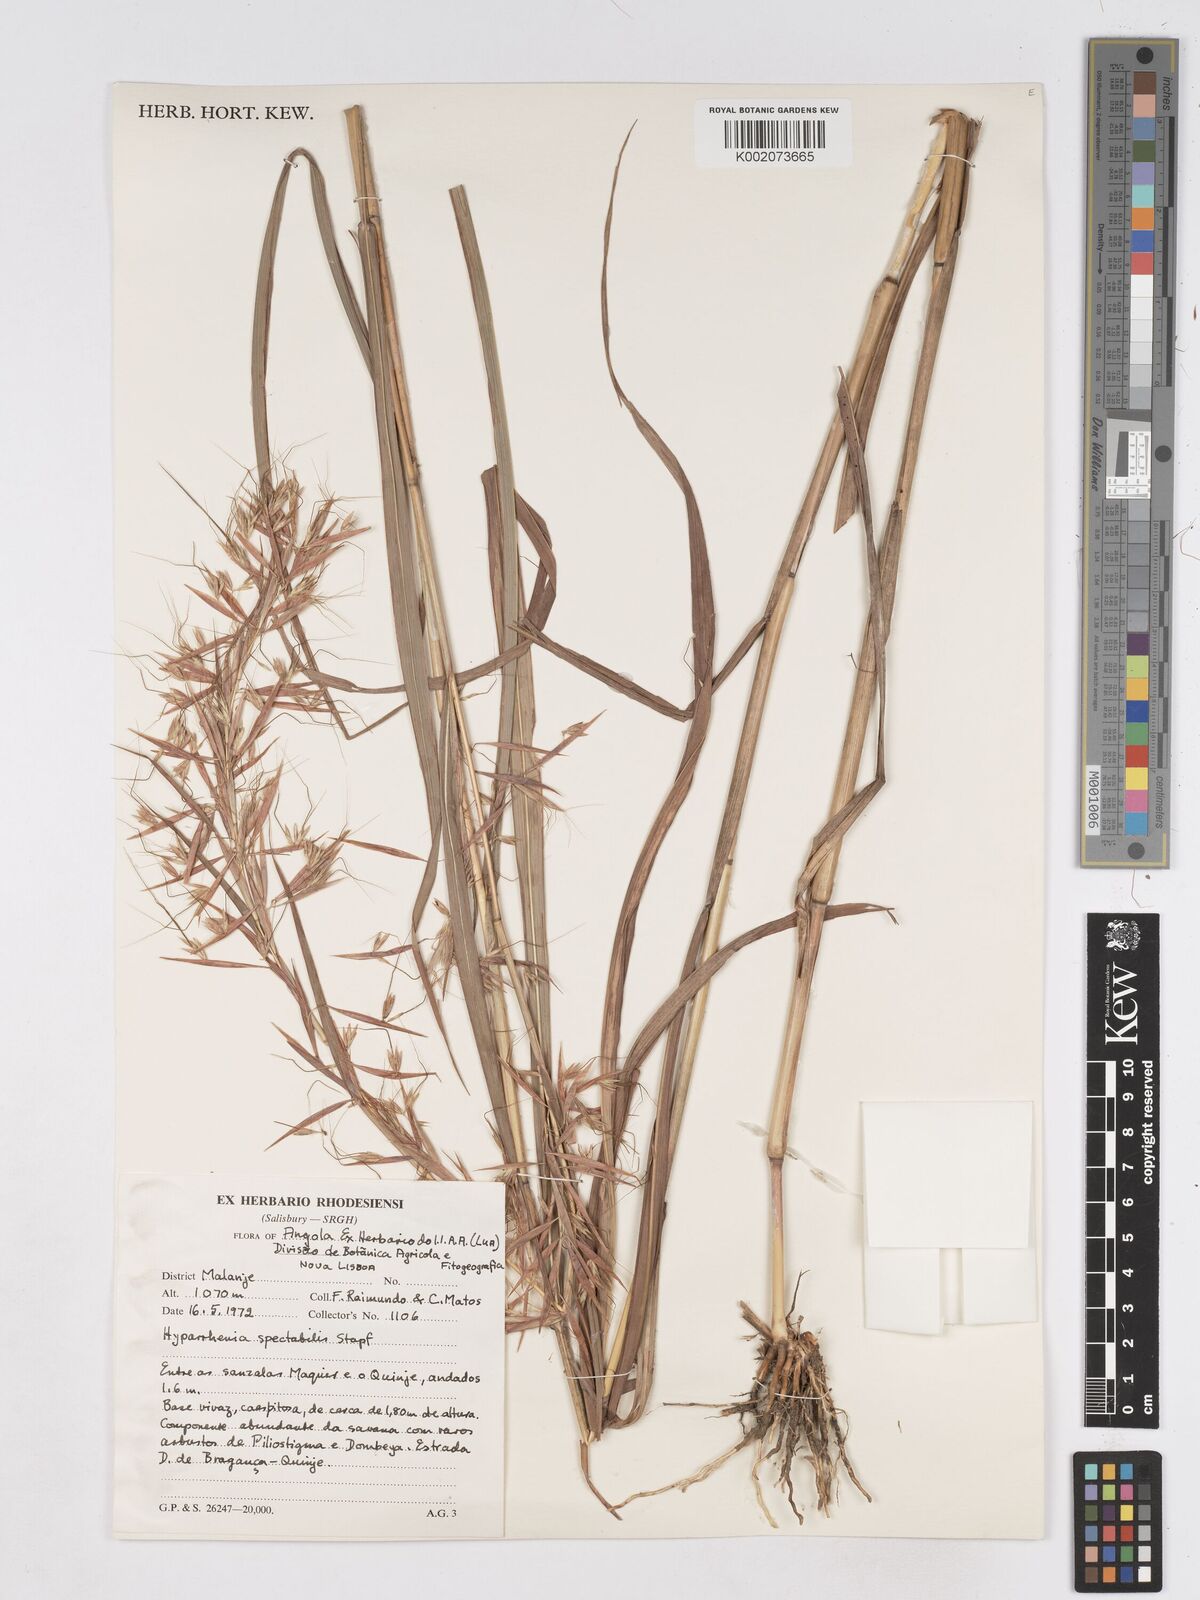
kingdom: Plantae
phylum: Tracheophyta
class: Liliopsida
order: Poales
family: Poaceae
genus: Hyparrhenia
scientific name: Hyparrhenia variabilis
